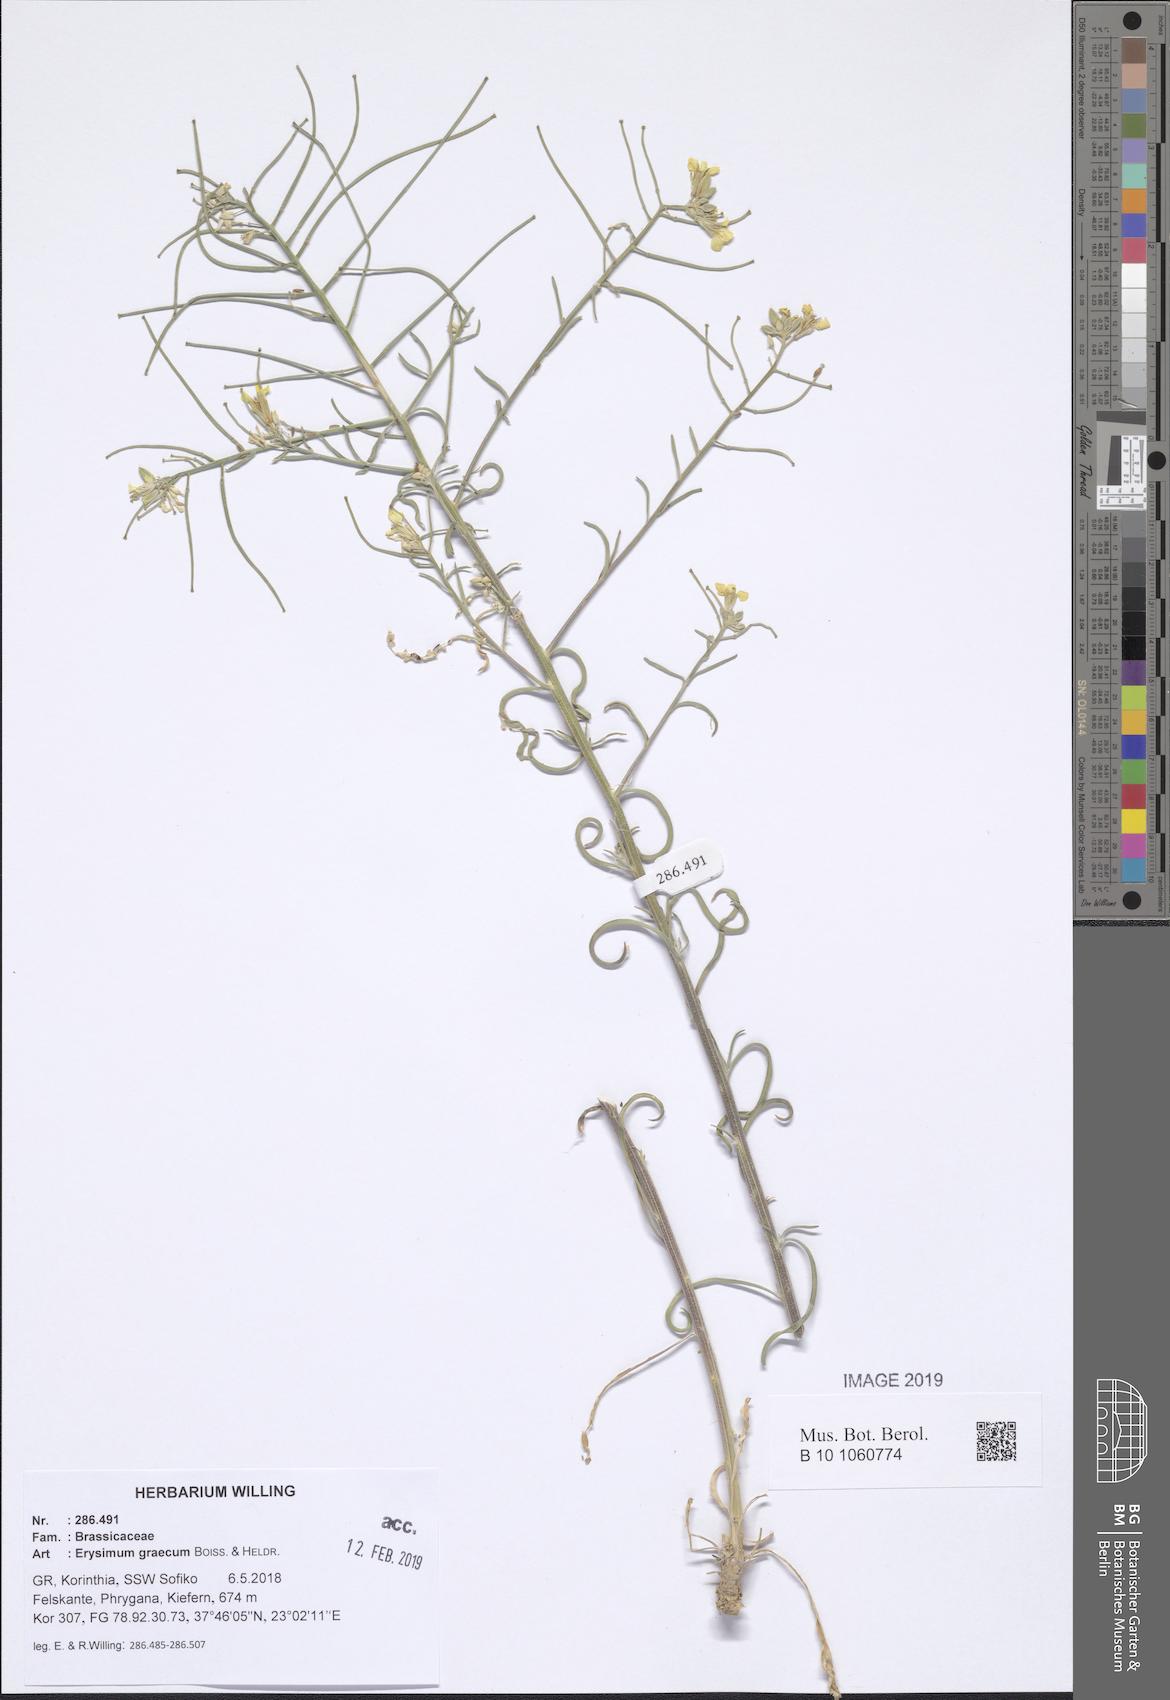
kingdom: Plantae
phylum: Tracheophyta
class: Magnoliopsida
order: Brassicales
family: Brassicaceae
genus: Erysimum
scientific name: Erysimum graecum
